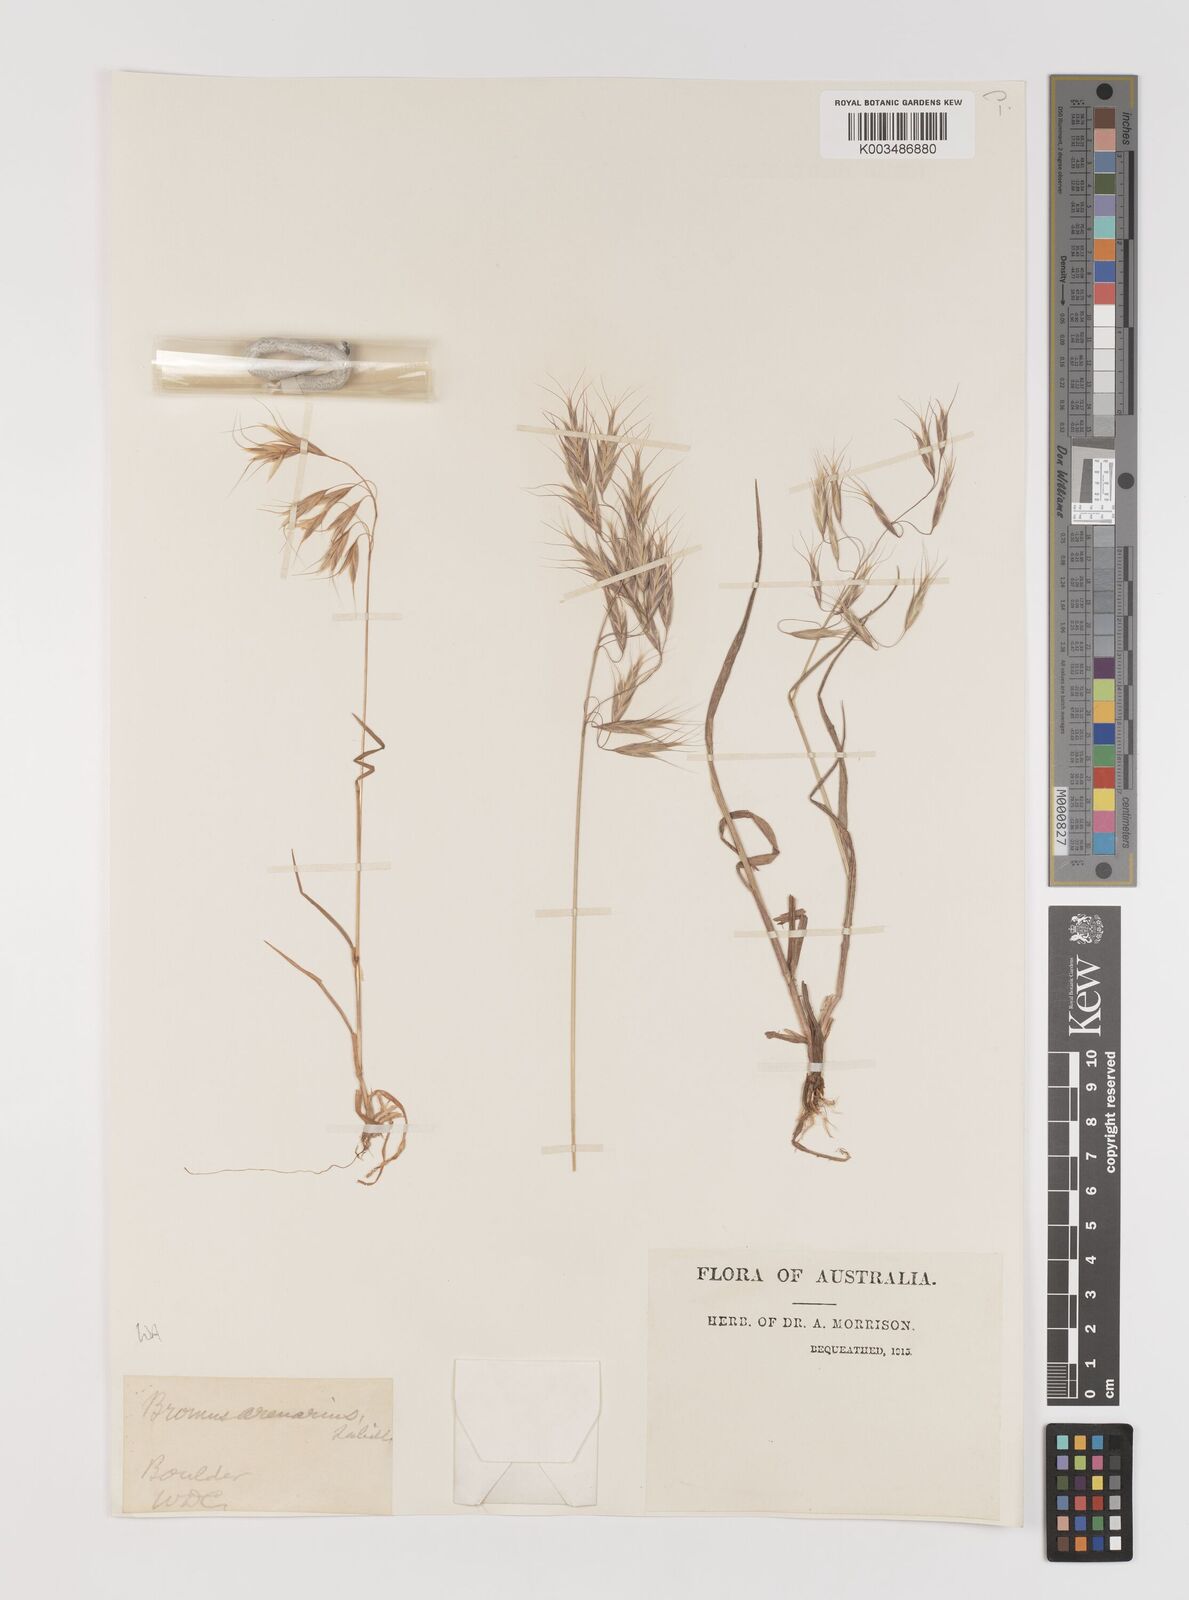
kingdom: Plantae
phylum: Tracheophyta
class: Liliopsida
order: Poales
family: Poaceae
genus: Bromus
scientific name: Bromus arenarius
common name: Australian brome
